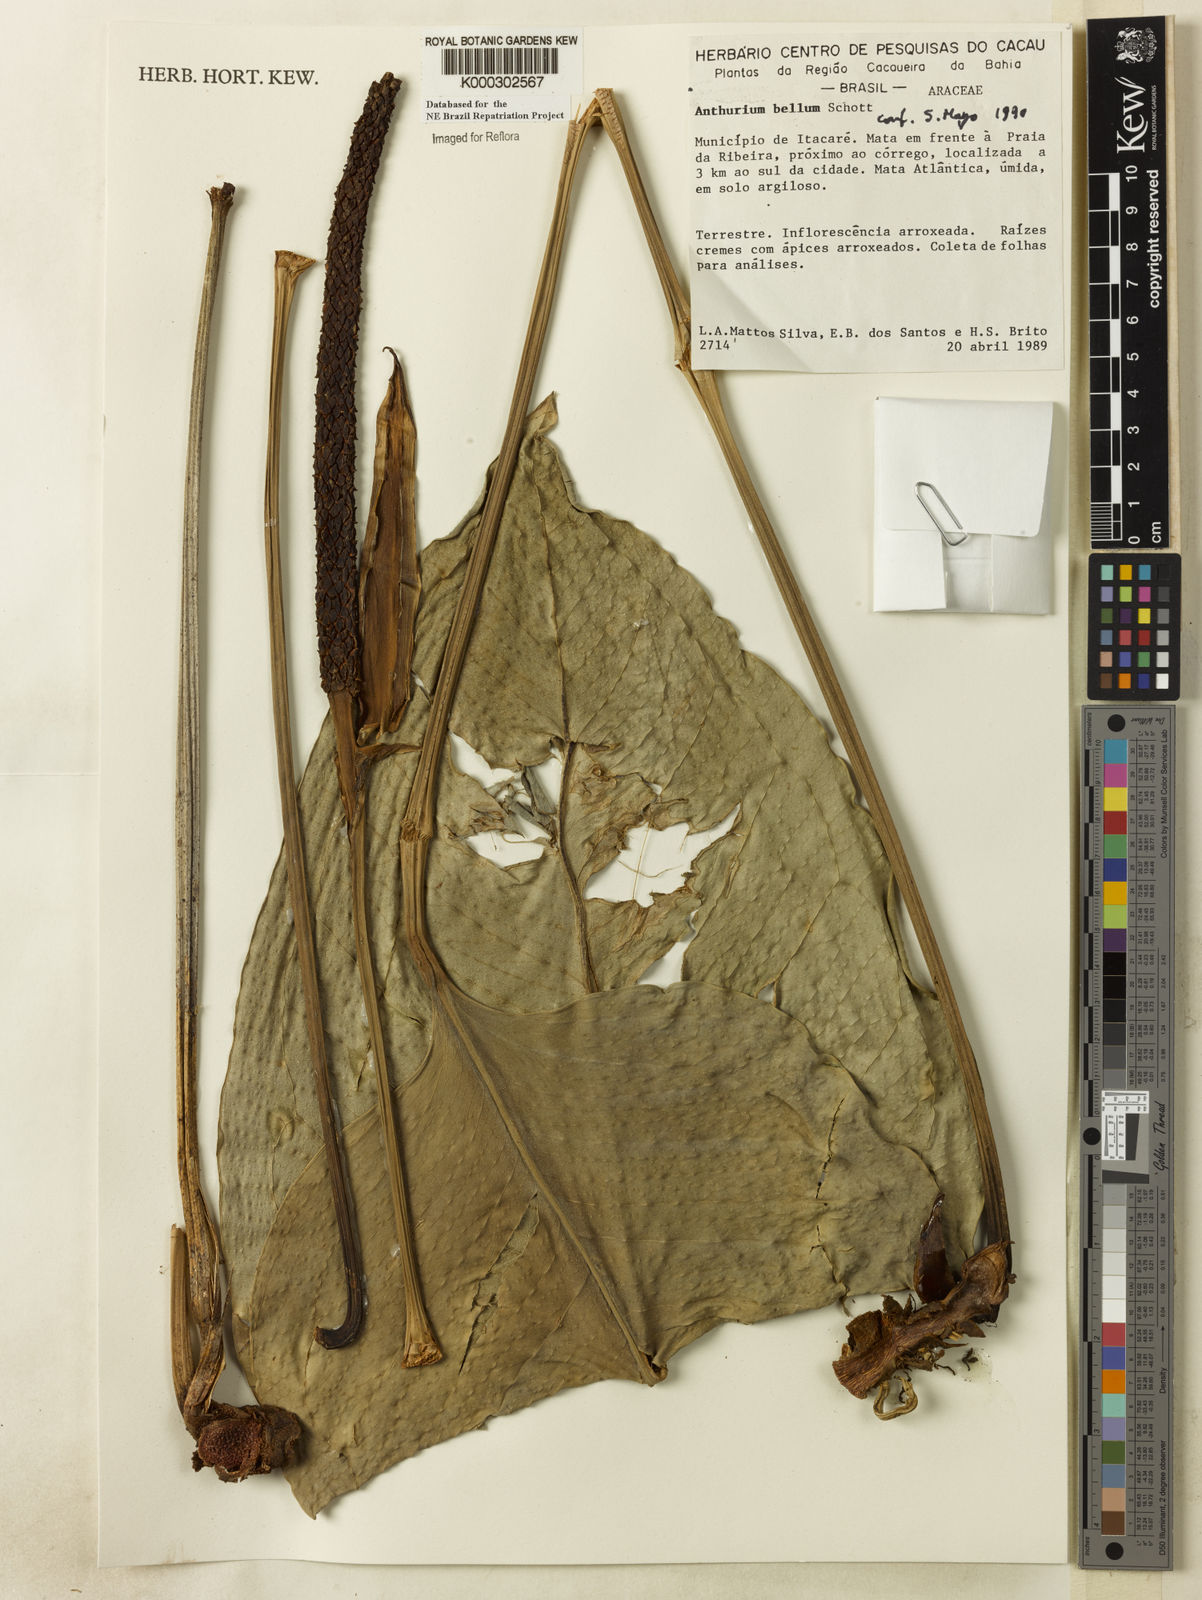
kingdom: Plantae
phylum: Tracheophyta
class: Liliopsida
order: Alismatales
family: Araceae
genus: Anthurium
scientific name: Anthurium bellum
